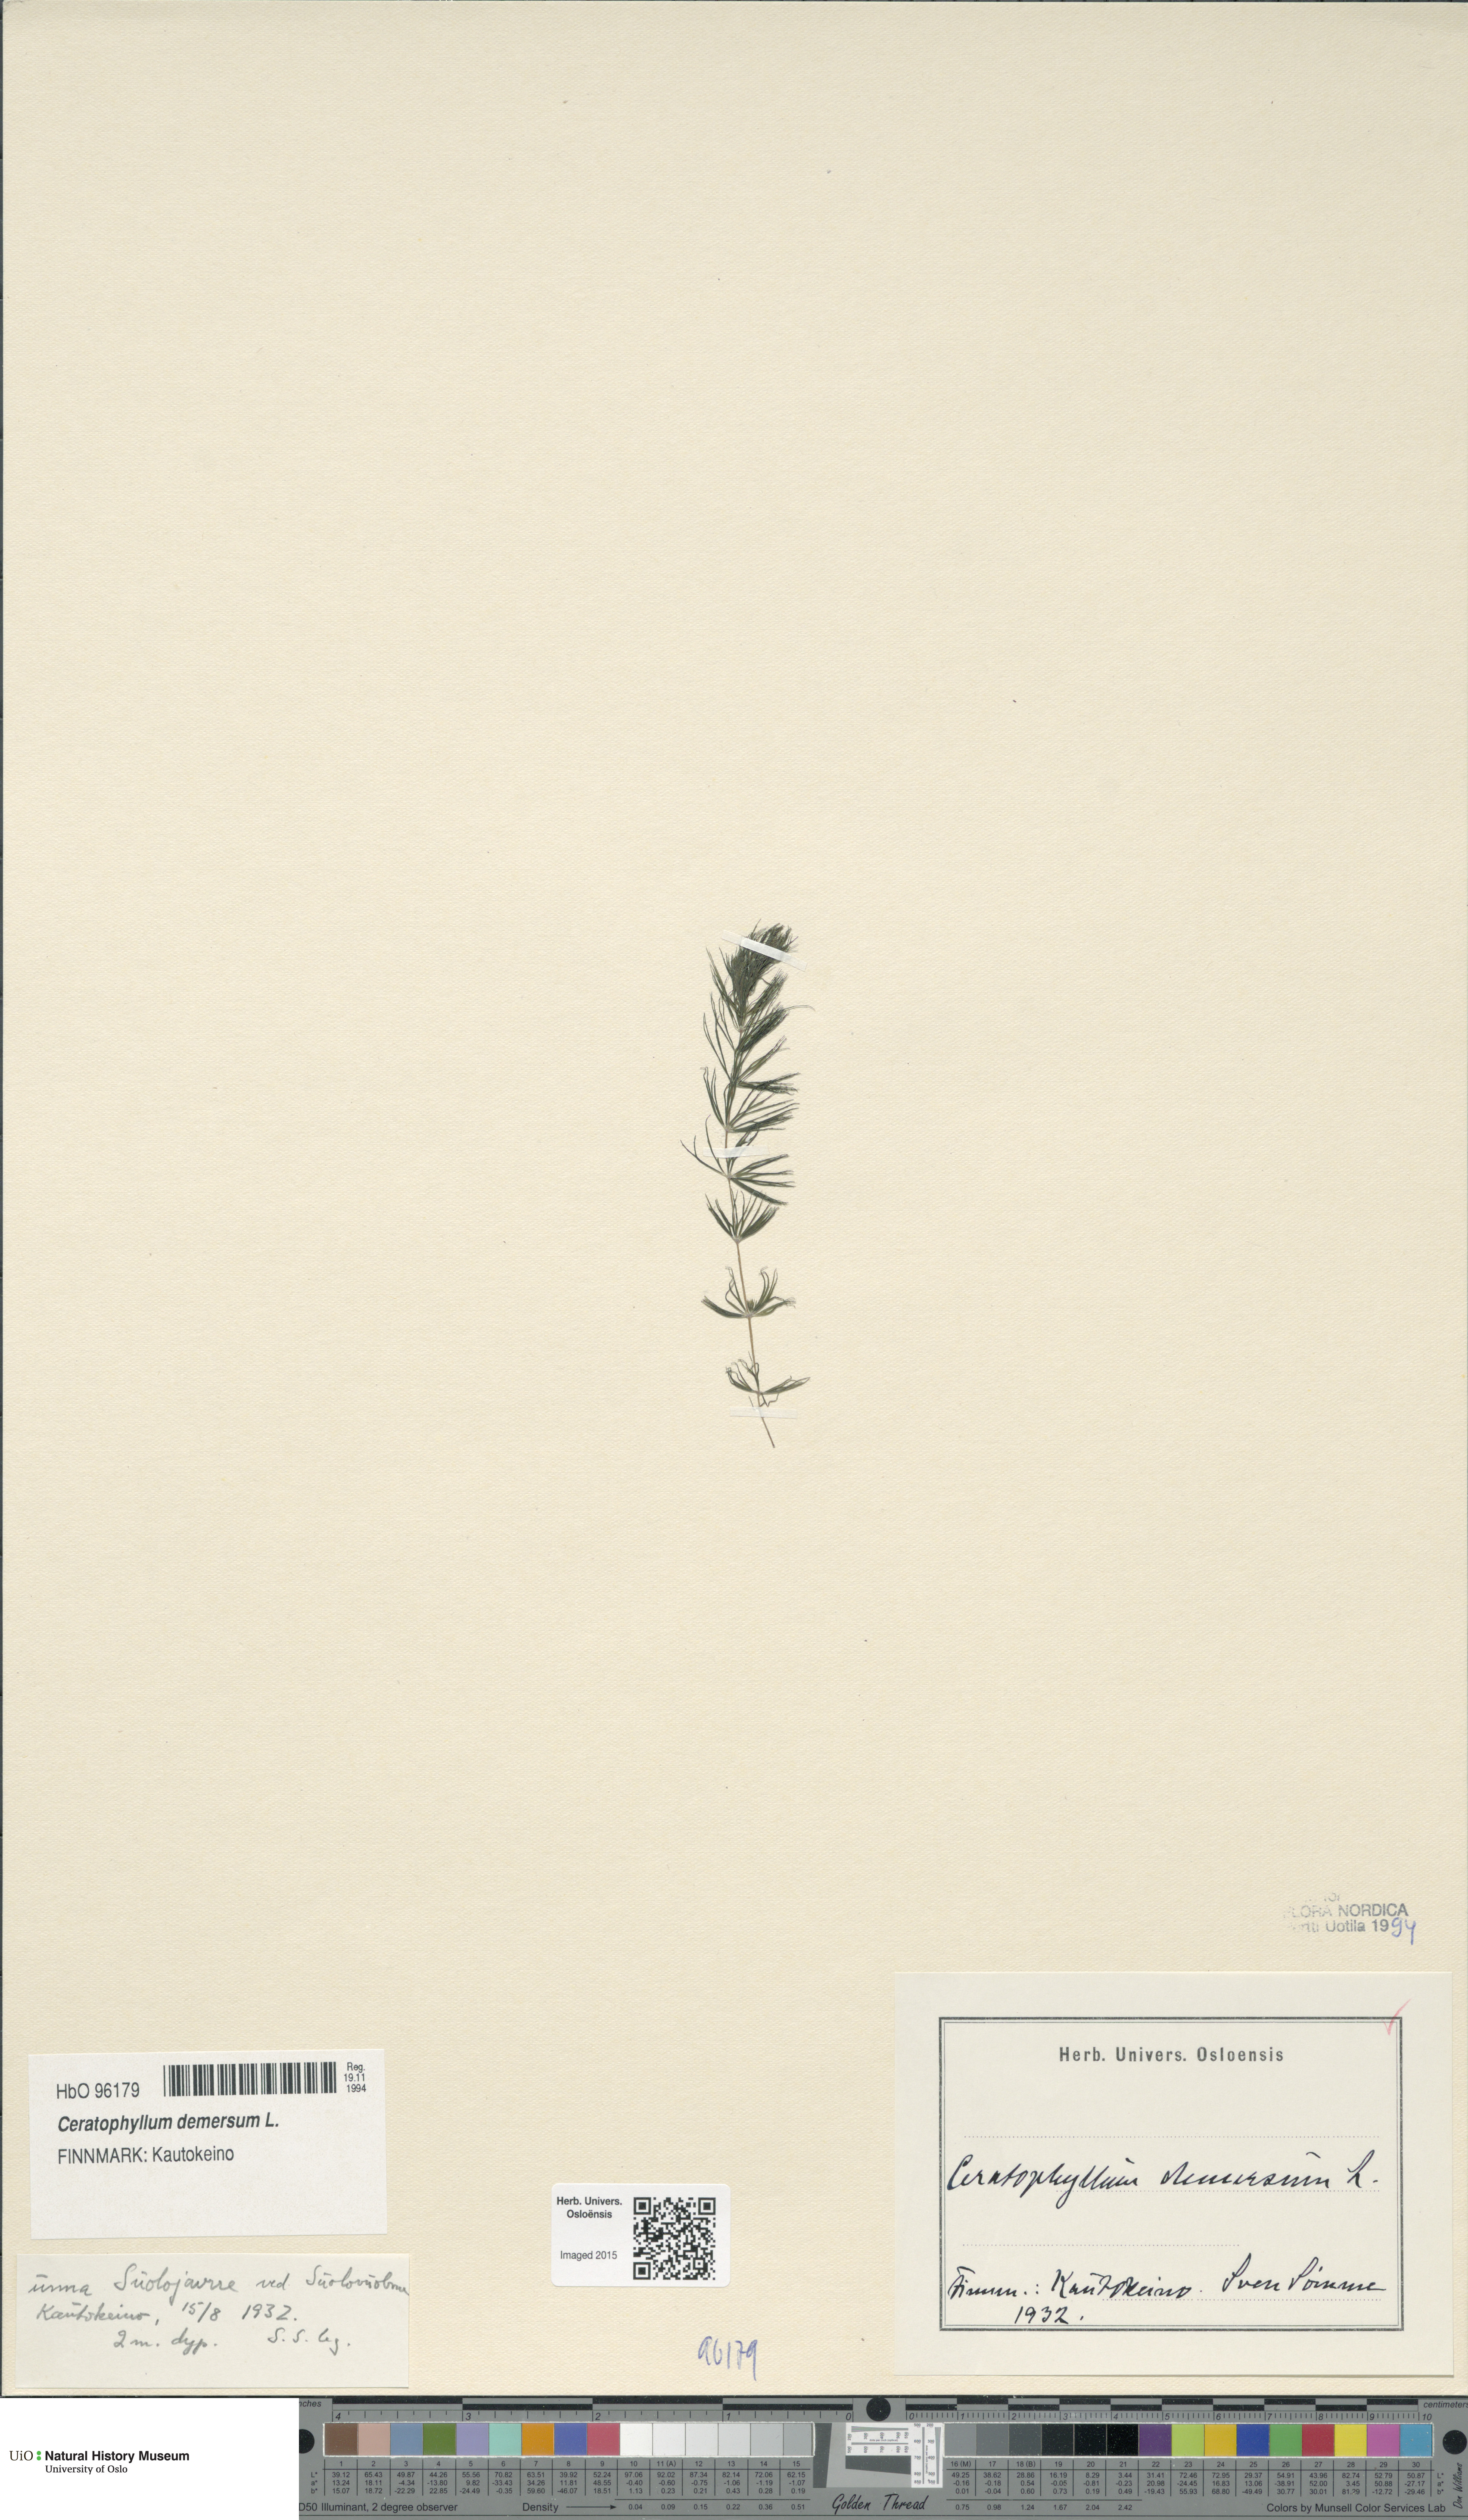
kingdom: Plantae
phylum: Tracheophyta
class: Magnoliopsida
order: Ceratophyllales
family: Ceratophyllaceae
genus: Ceratophyllum
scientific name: Ceratophyllum demersum
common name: Rigid hornwort
